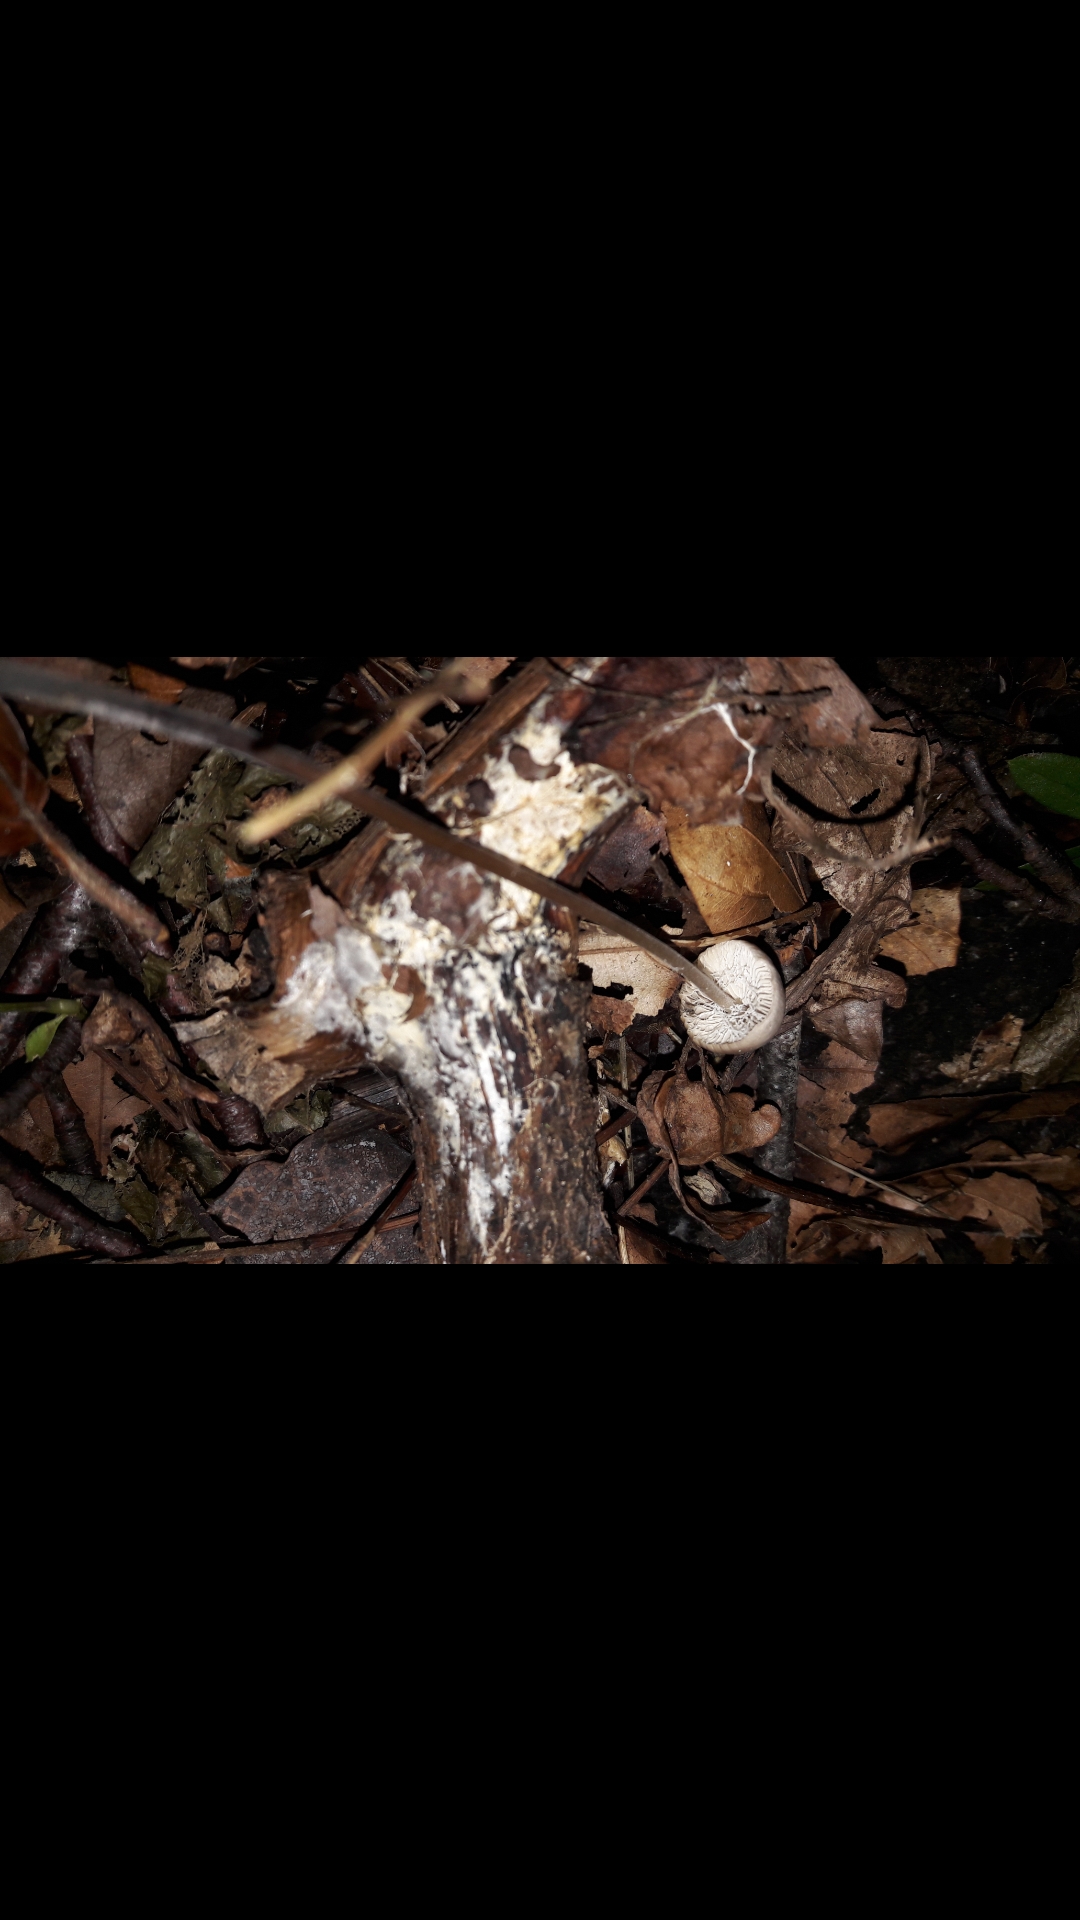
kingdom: Fungi
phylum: Basidiomycota
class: Agaricomycetes
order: Agaricales
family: Omphalotaceae
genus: Mycetinis
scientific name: Mycetinis alliaceus
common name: stor løghat
